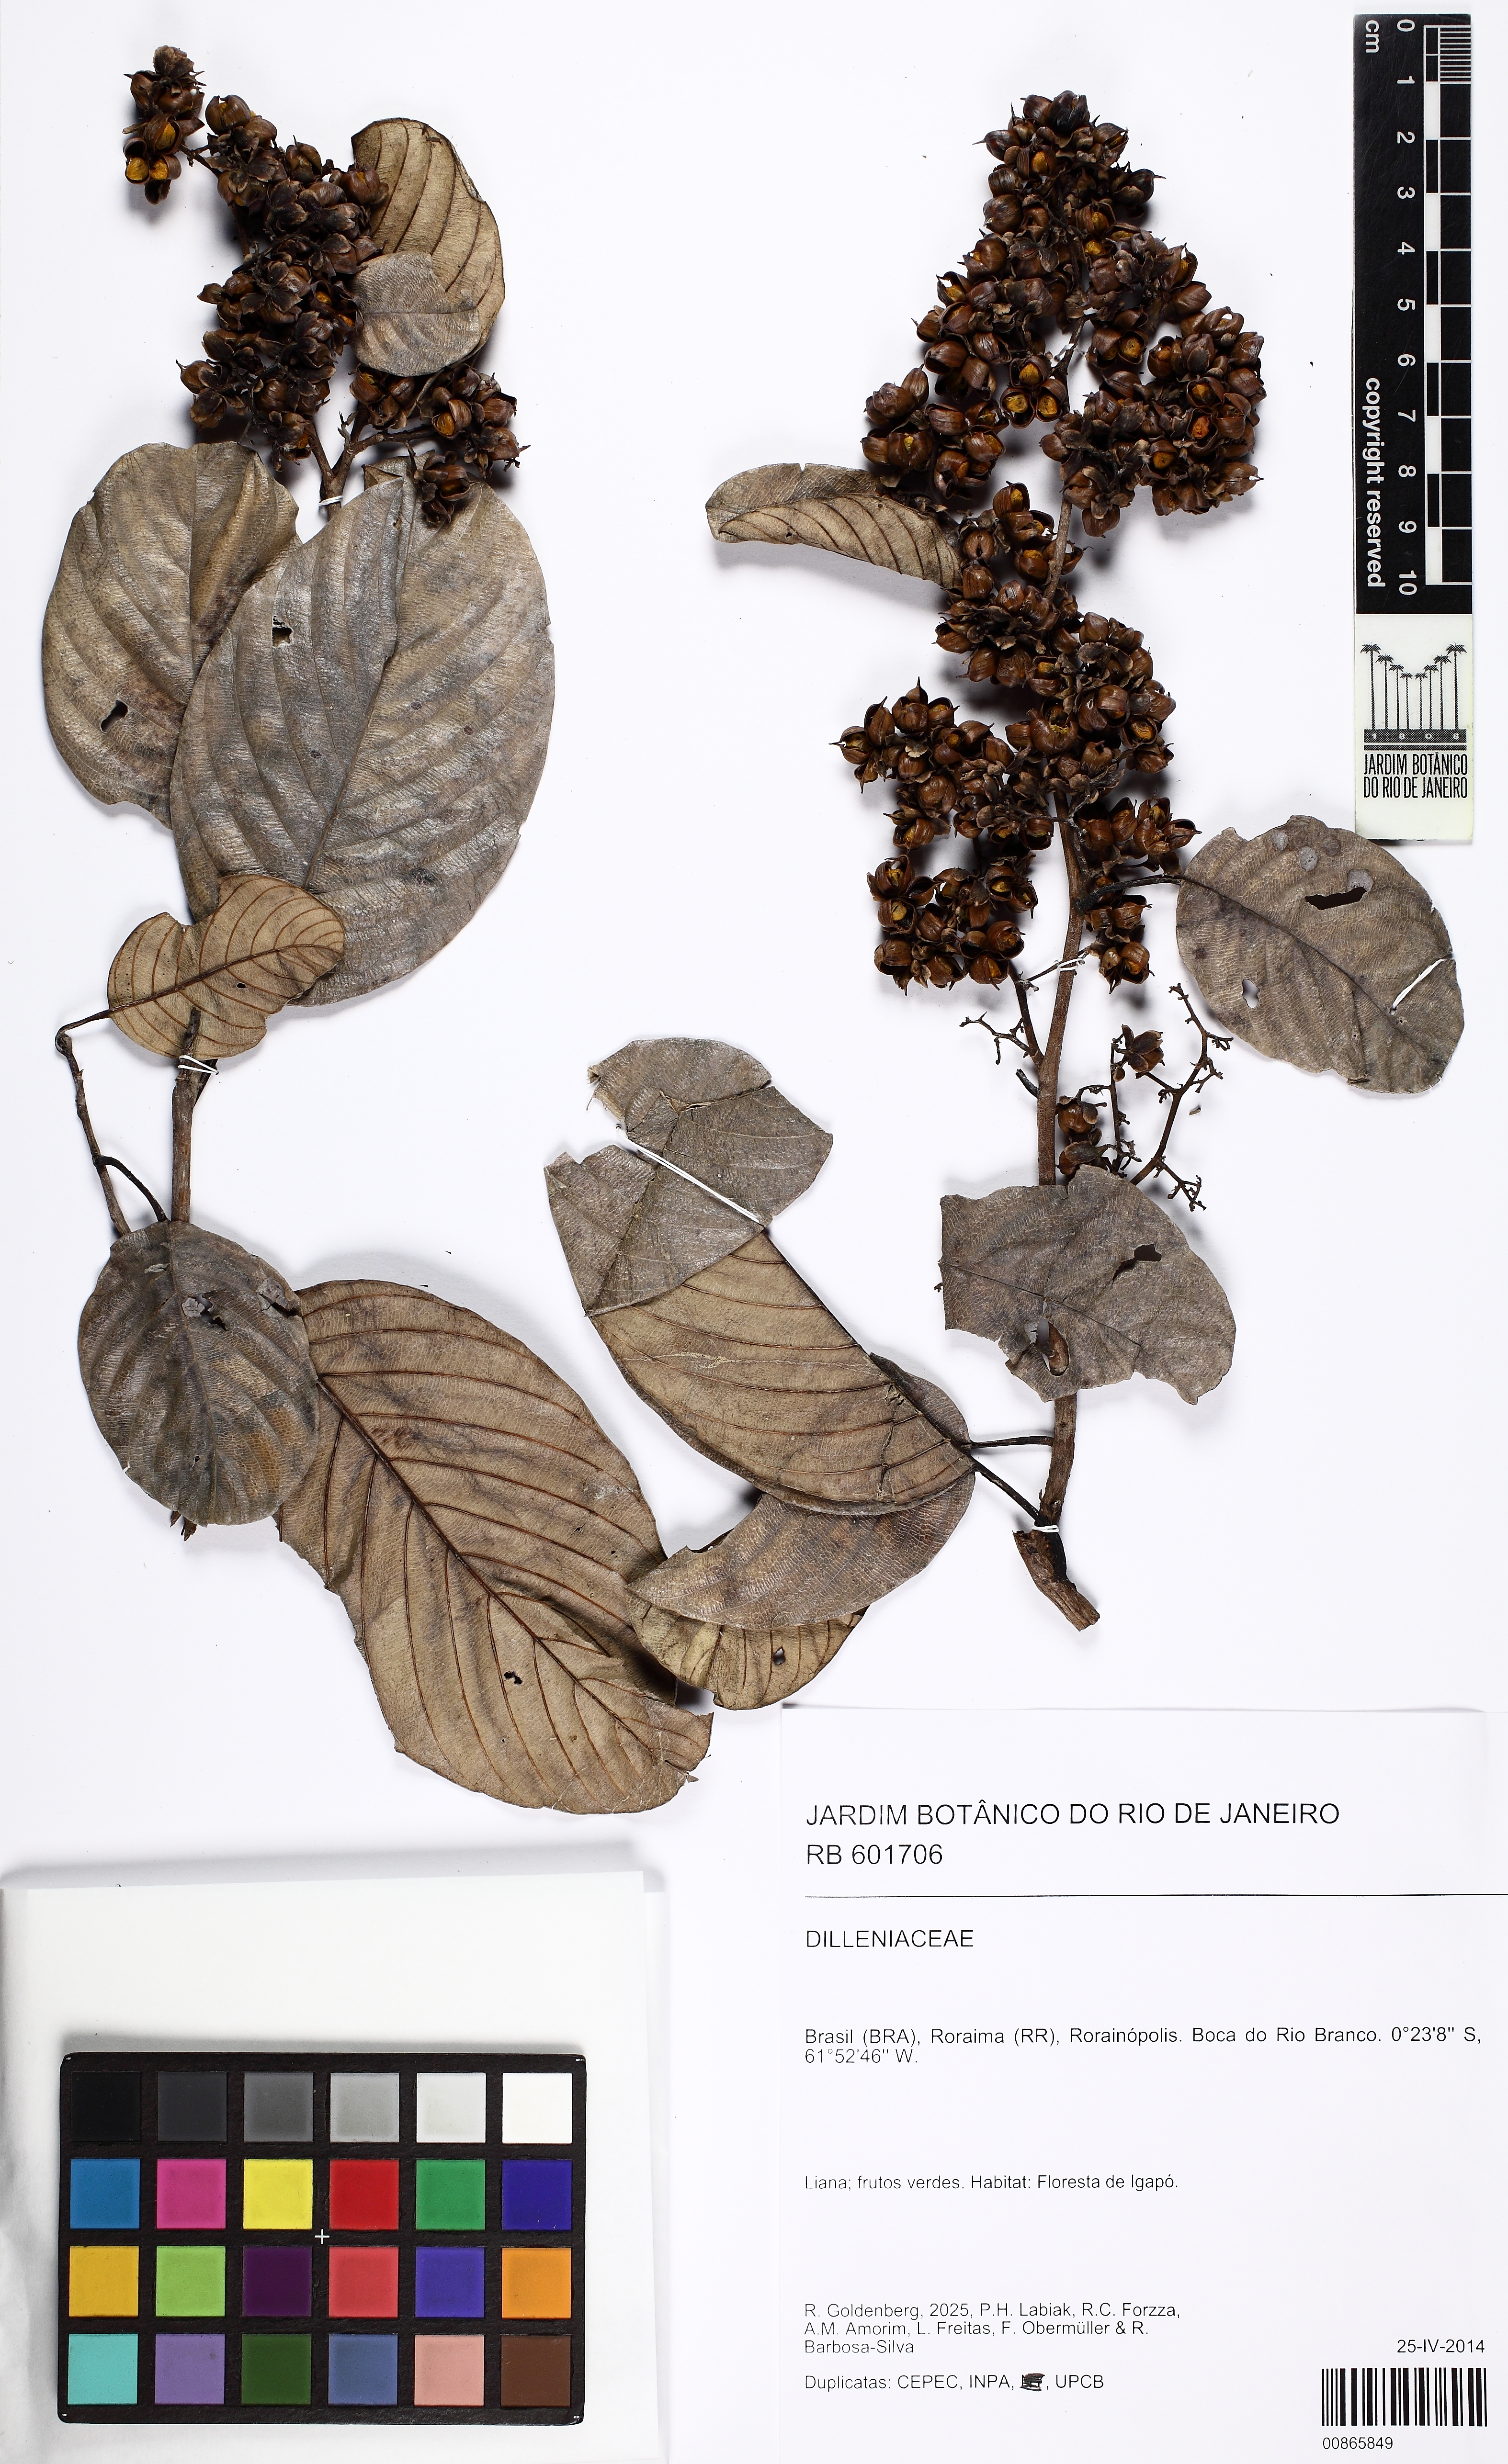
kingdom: Plantae
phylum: Tracheophyta
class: Magnoliopsida
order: Dilleniales
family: Dilleniaceae
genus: Tetracera
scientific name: Tetracera willdenowiana
